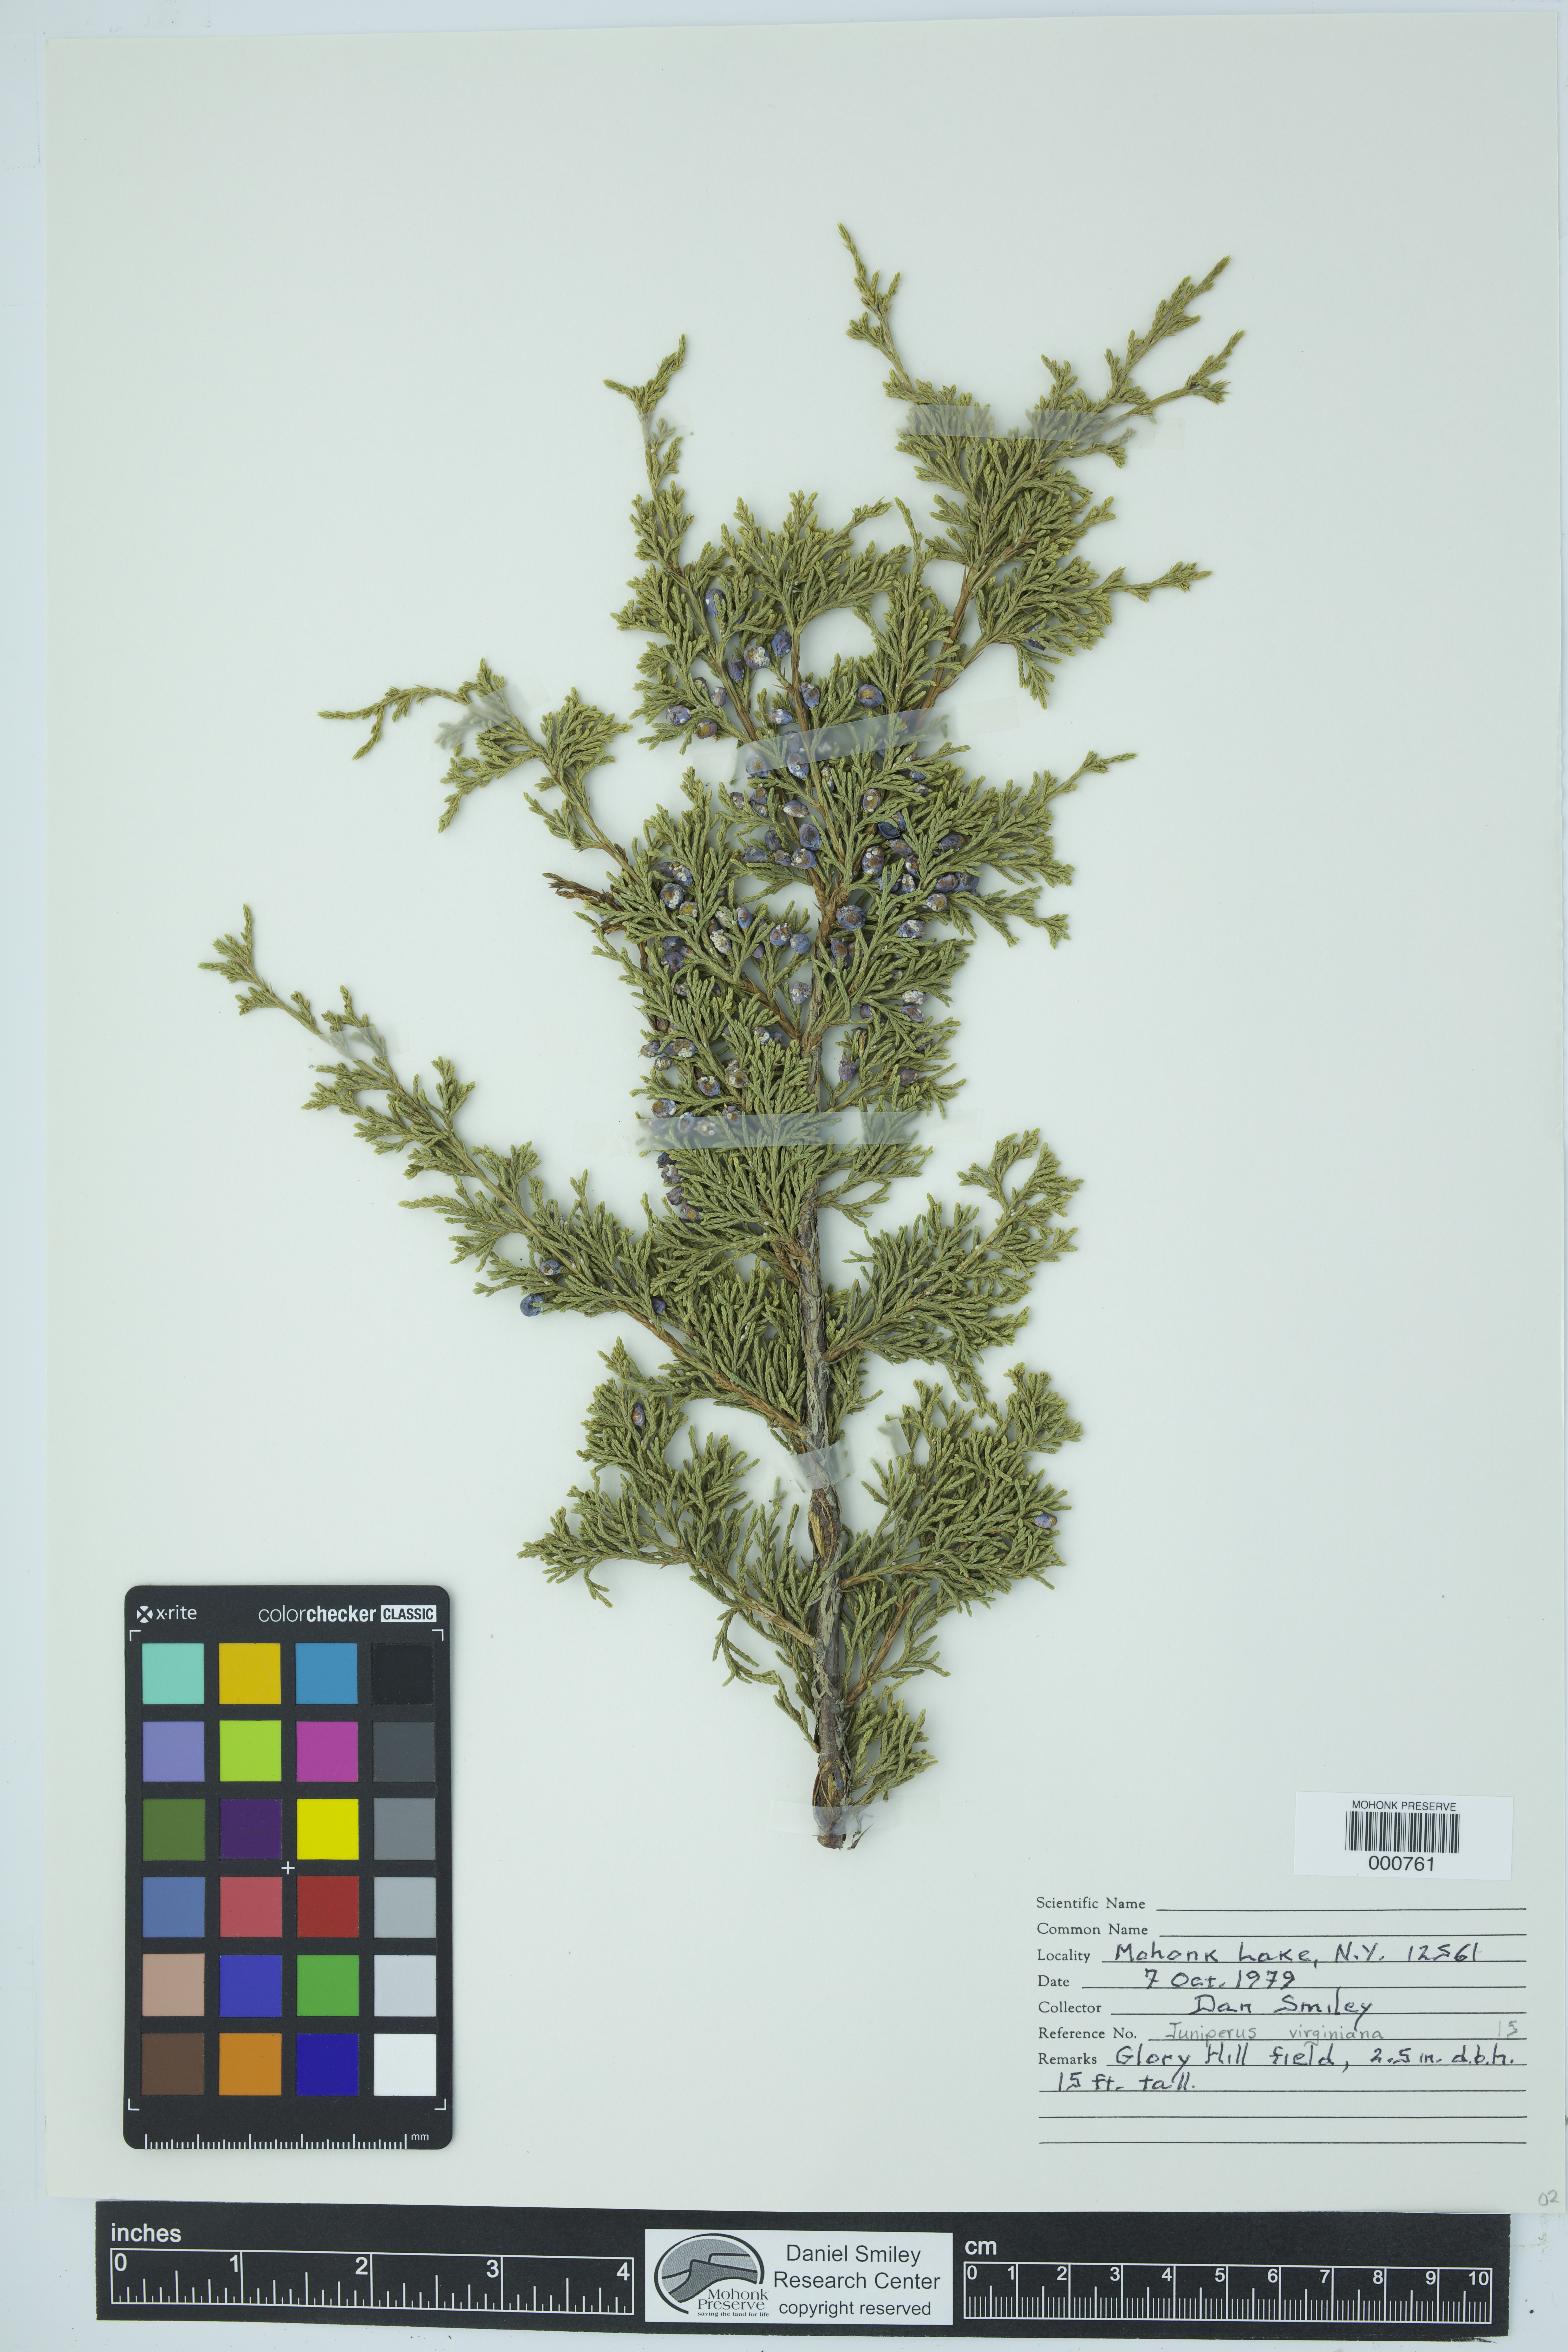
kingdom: Plantae
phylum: Tracheophyta
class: Pinopsida
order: Pinales
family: Cupressaceae
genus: Juniperus
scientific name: Juniperus virginiana
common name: Red juniper
